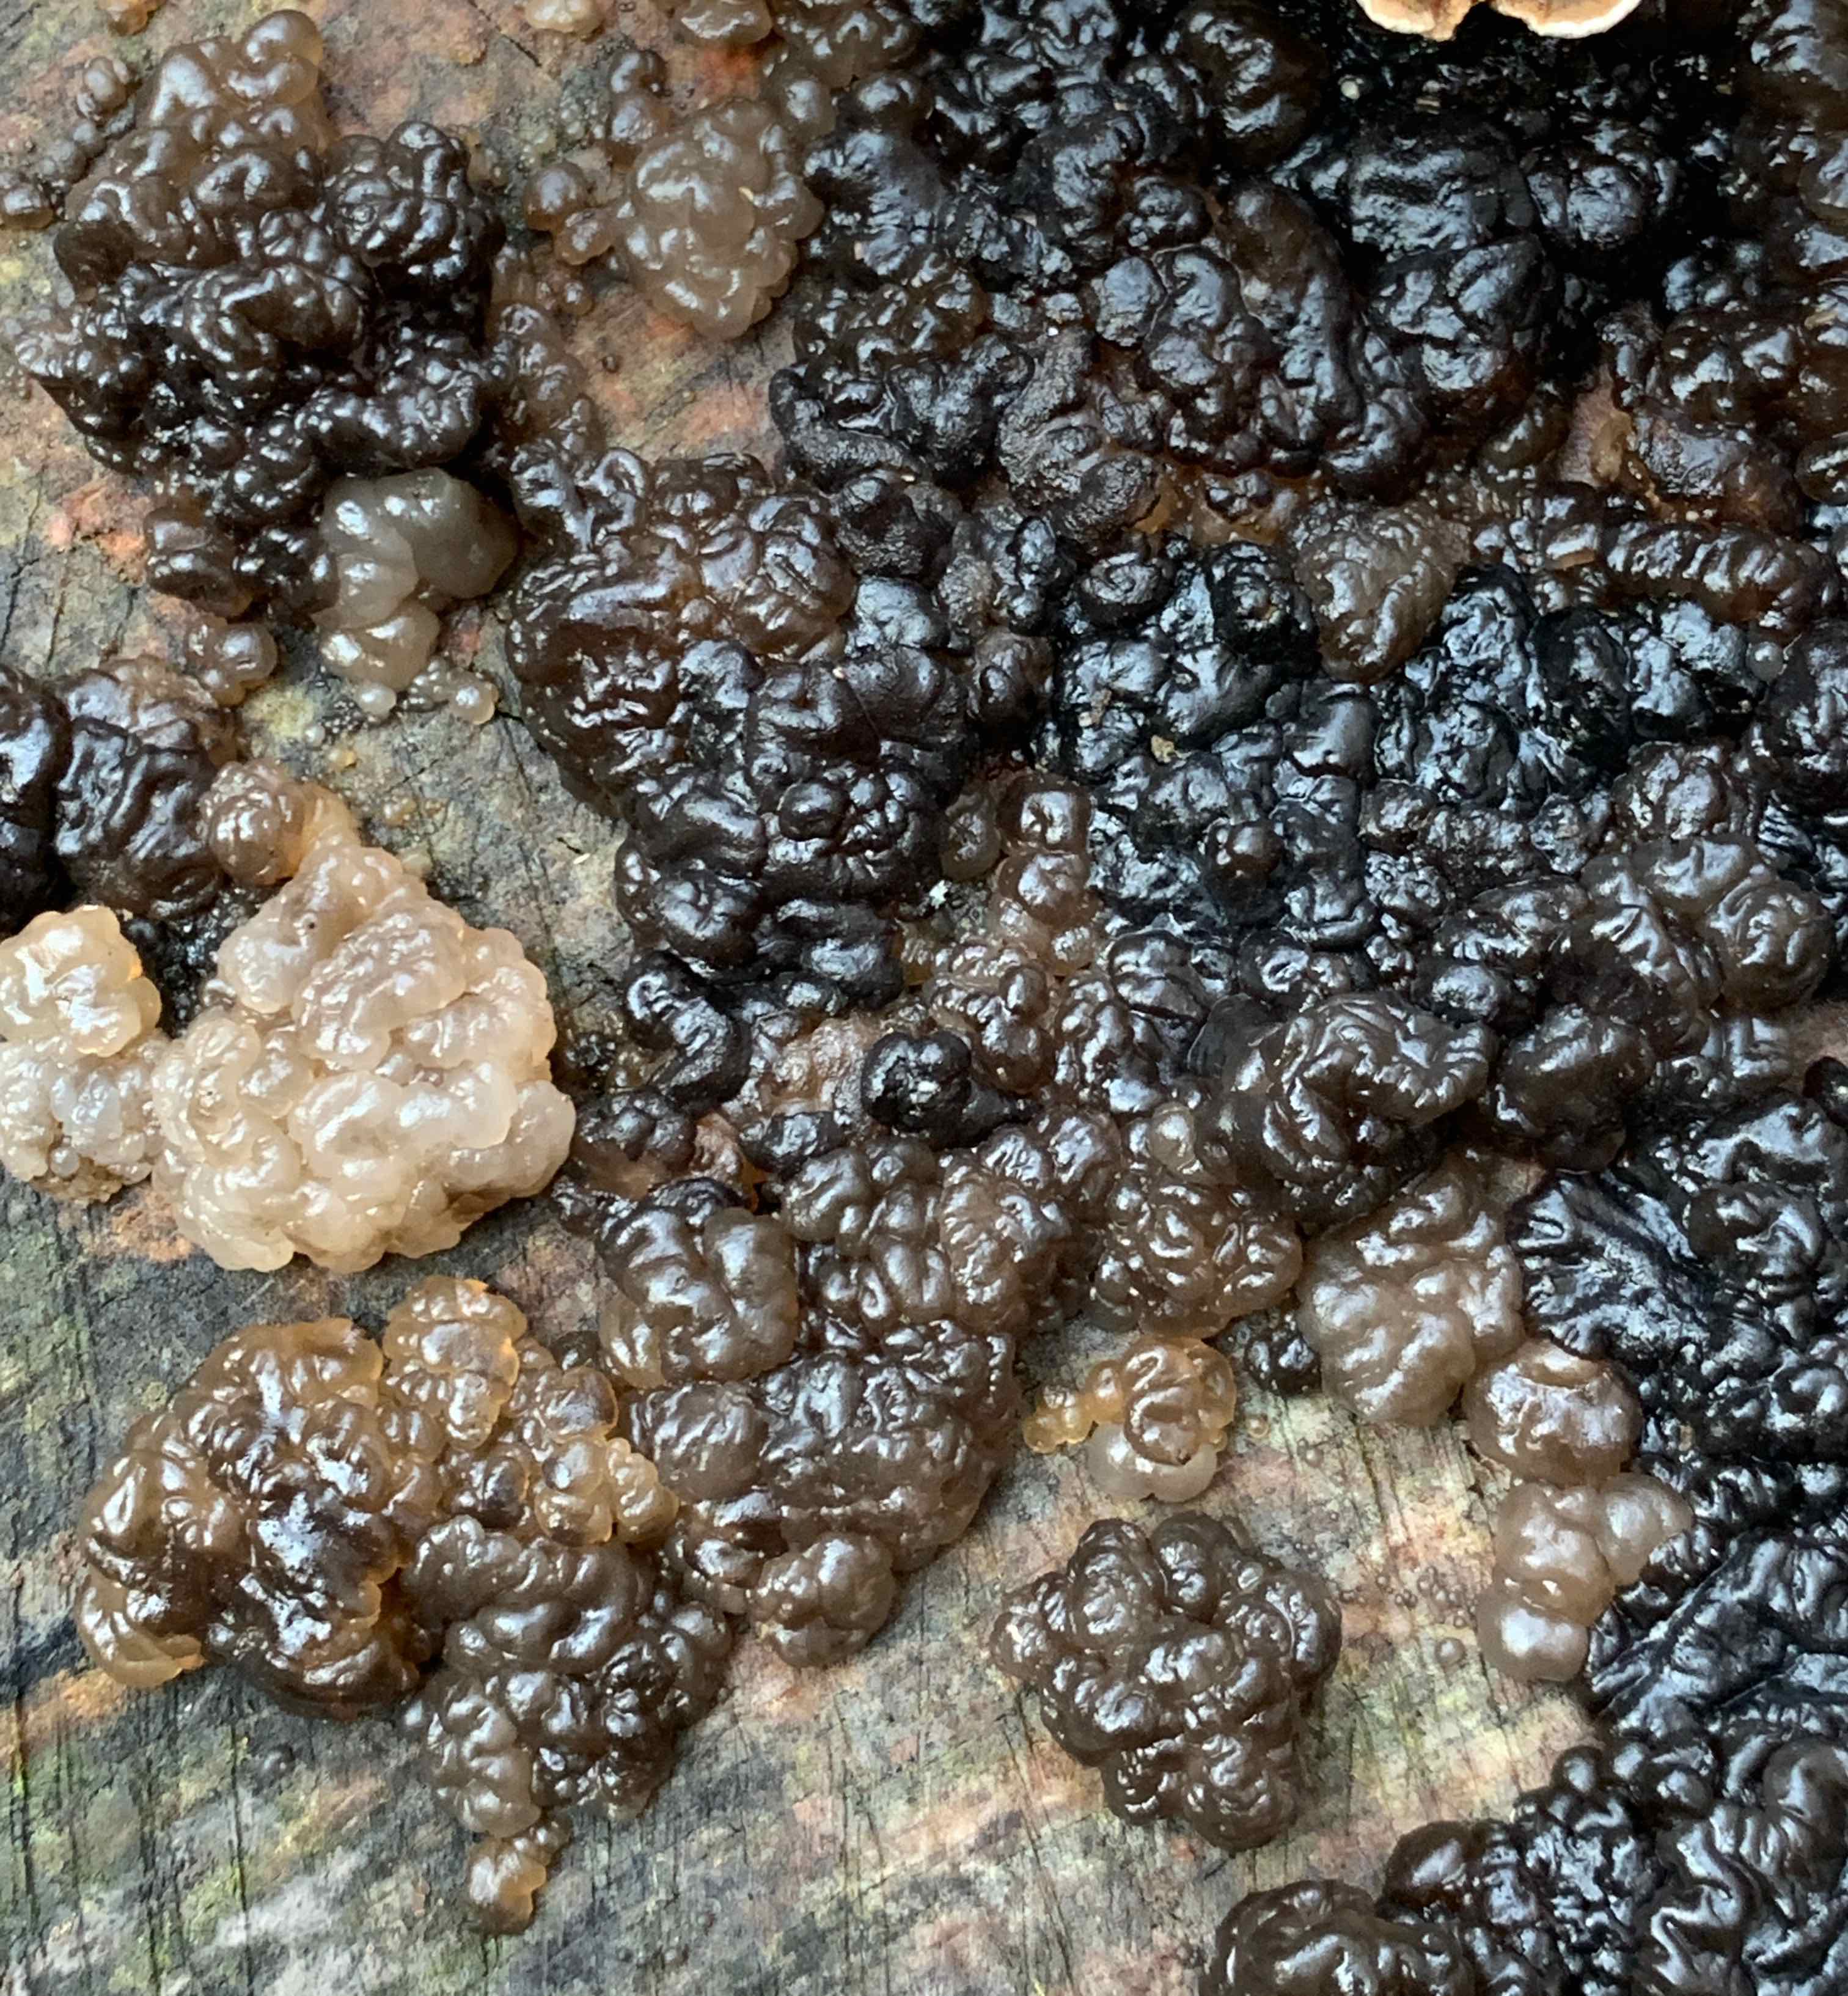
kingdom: Fungi
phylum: Basidiomycota
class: Agaricomycetes
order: Auriculariales
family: Auriculariaceae
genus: Exidia
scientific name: Exidia nigricans
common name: almindelig bævretop
